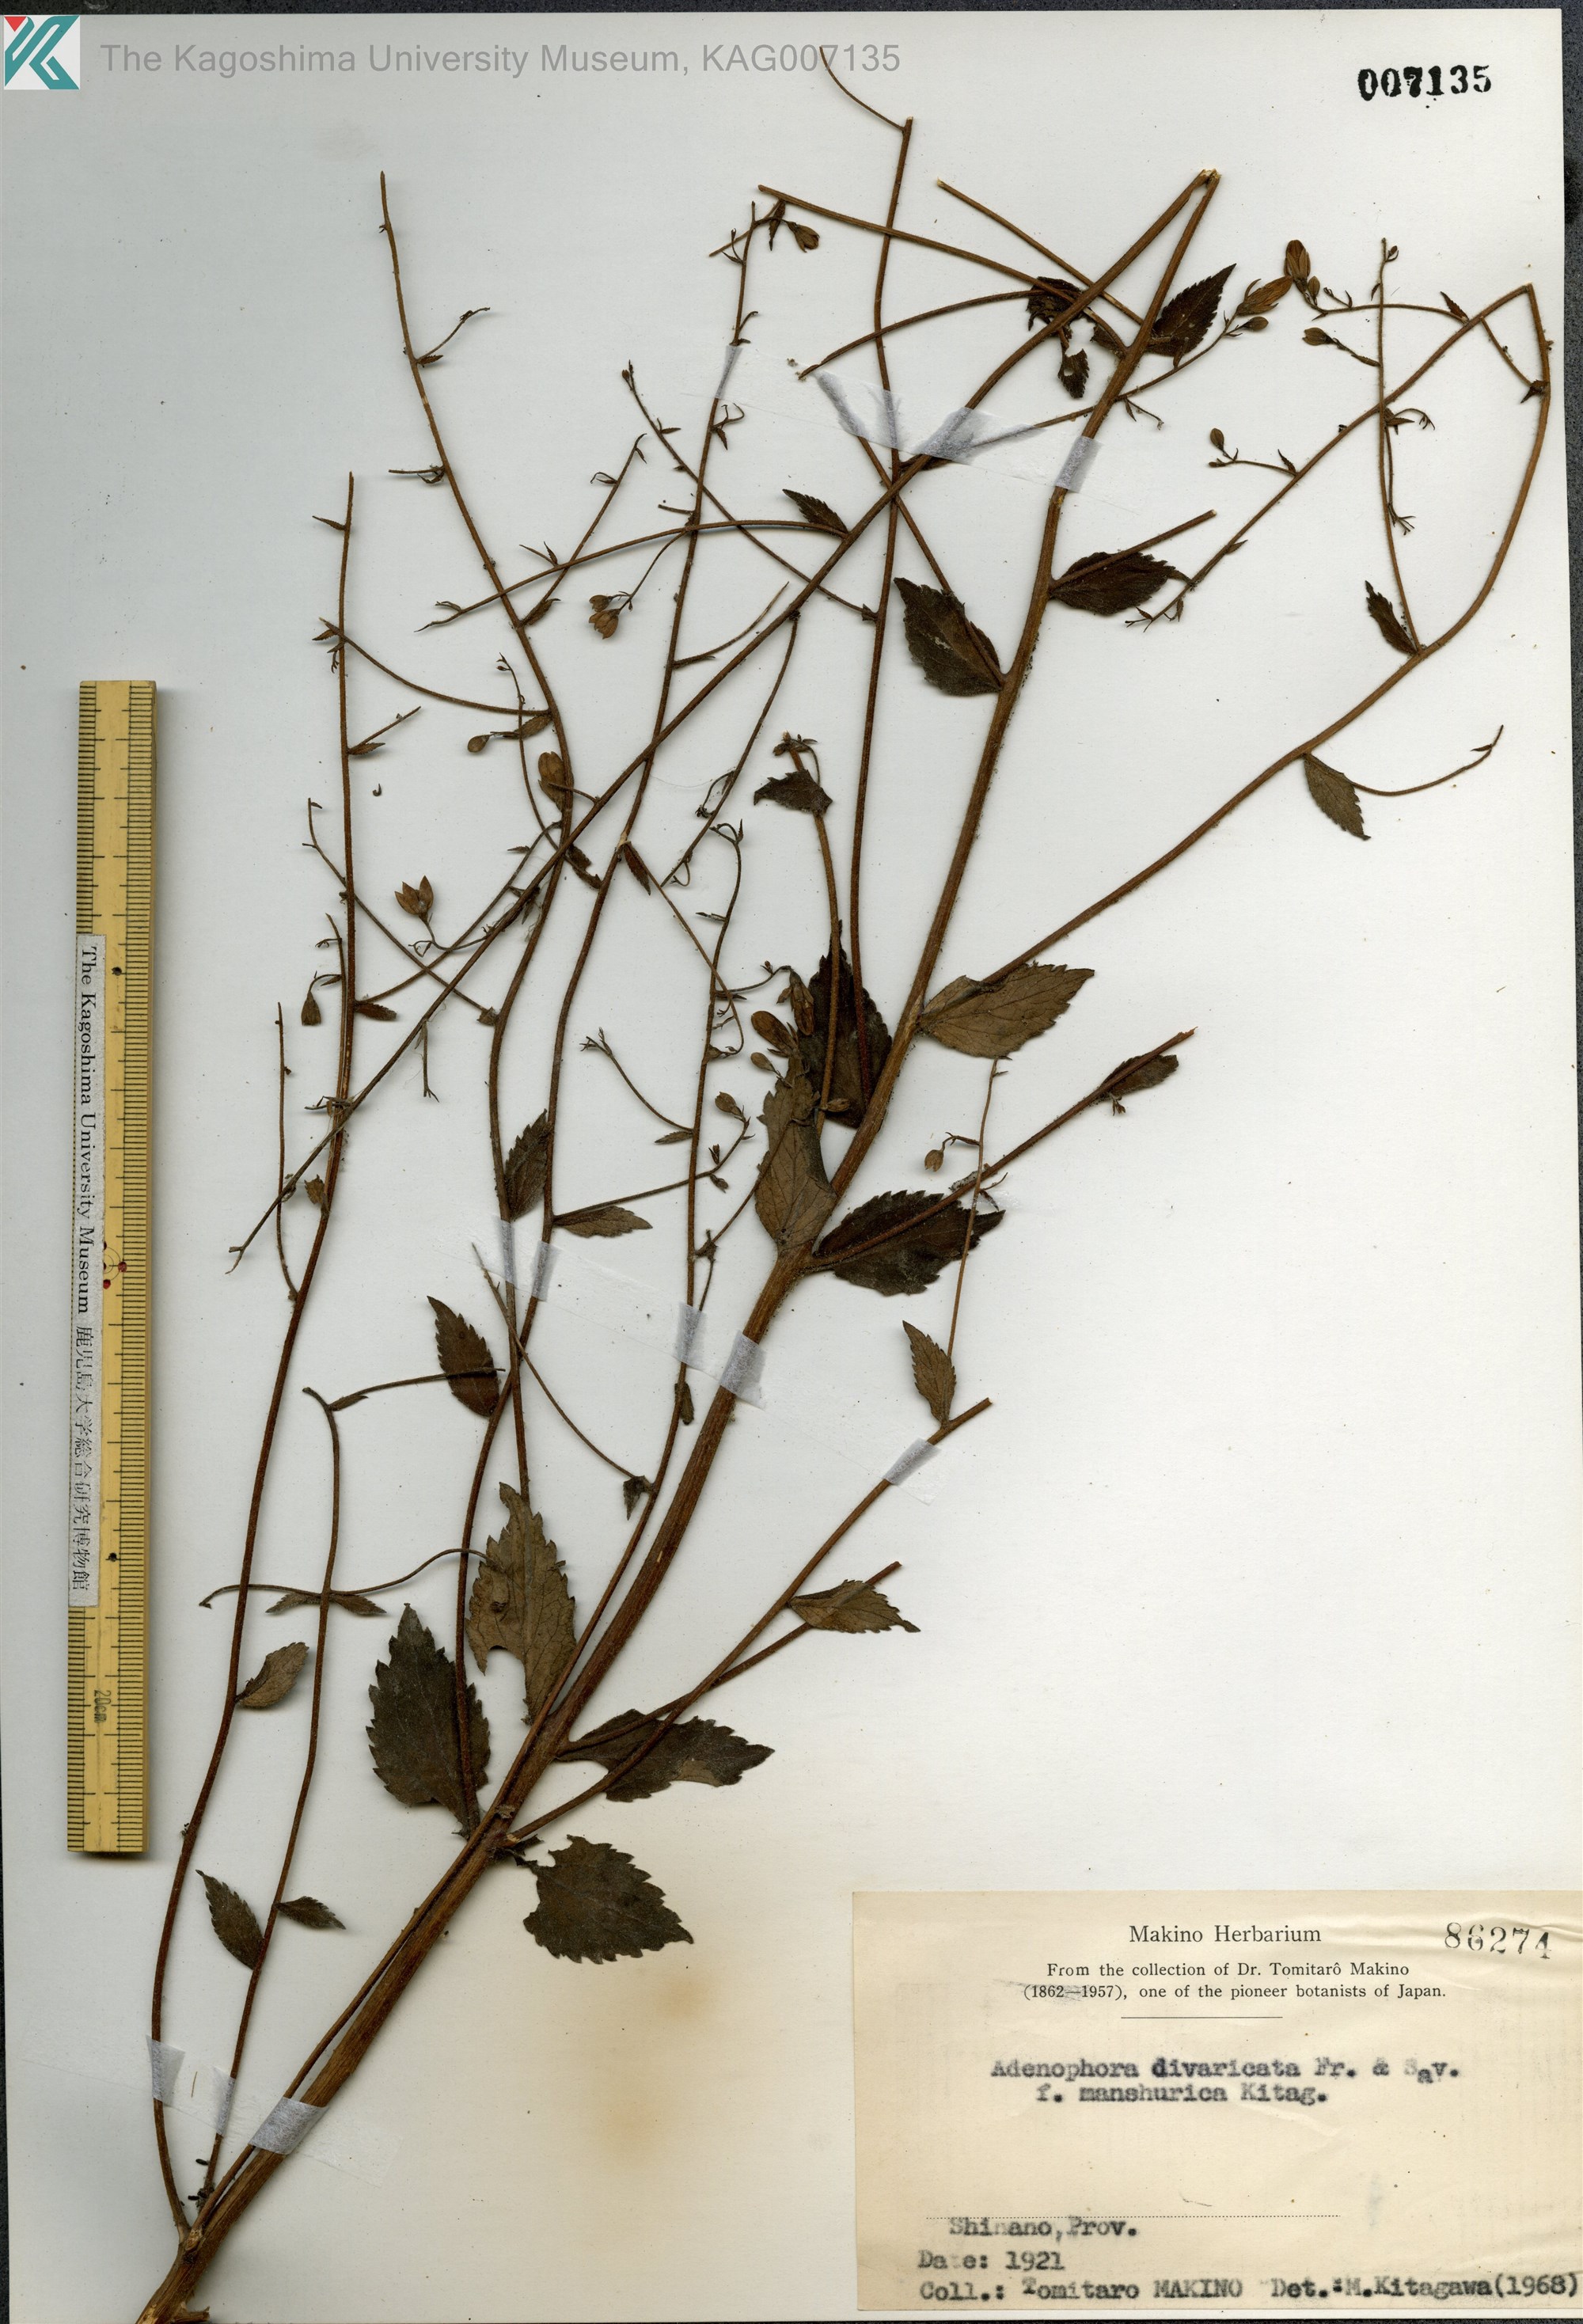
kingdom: Plantae
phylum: Tracheophyta
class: Magnoliopsida
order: Asterales
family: Campanulaceae
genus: Adenophora
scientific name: Adenophora divaricata
